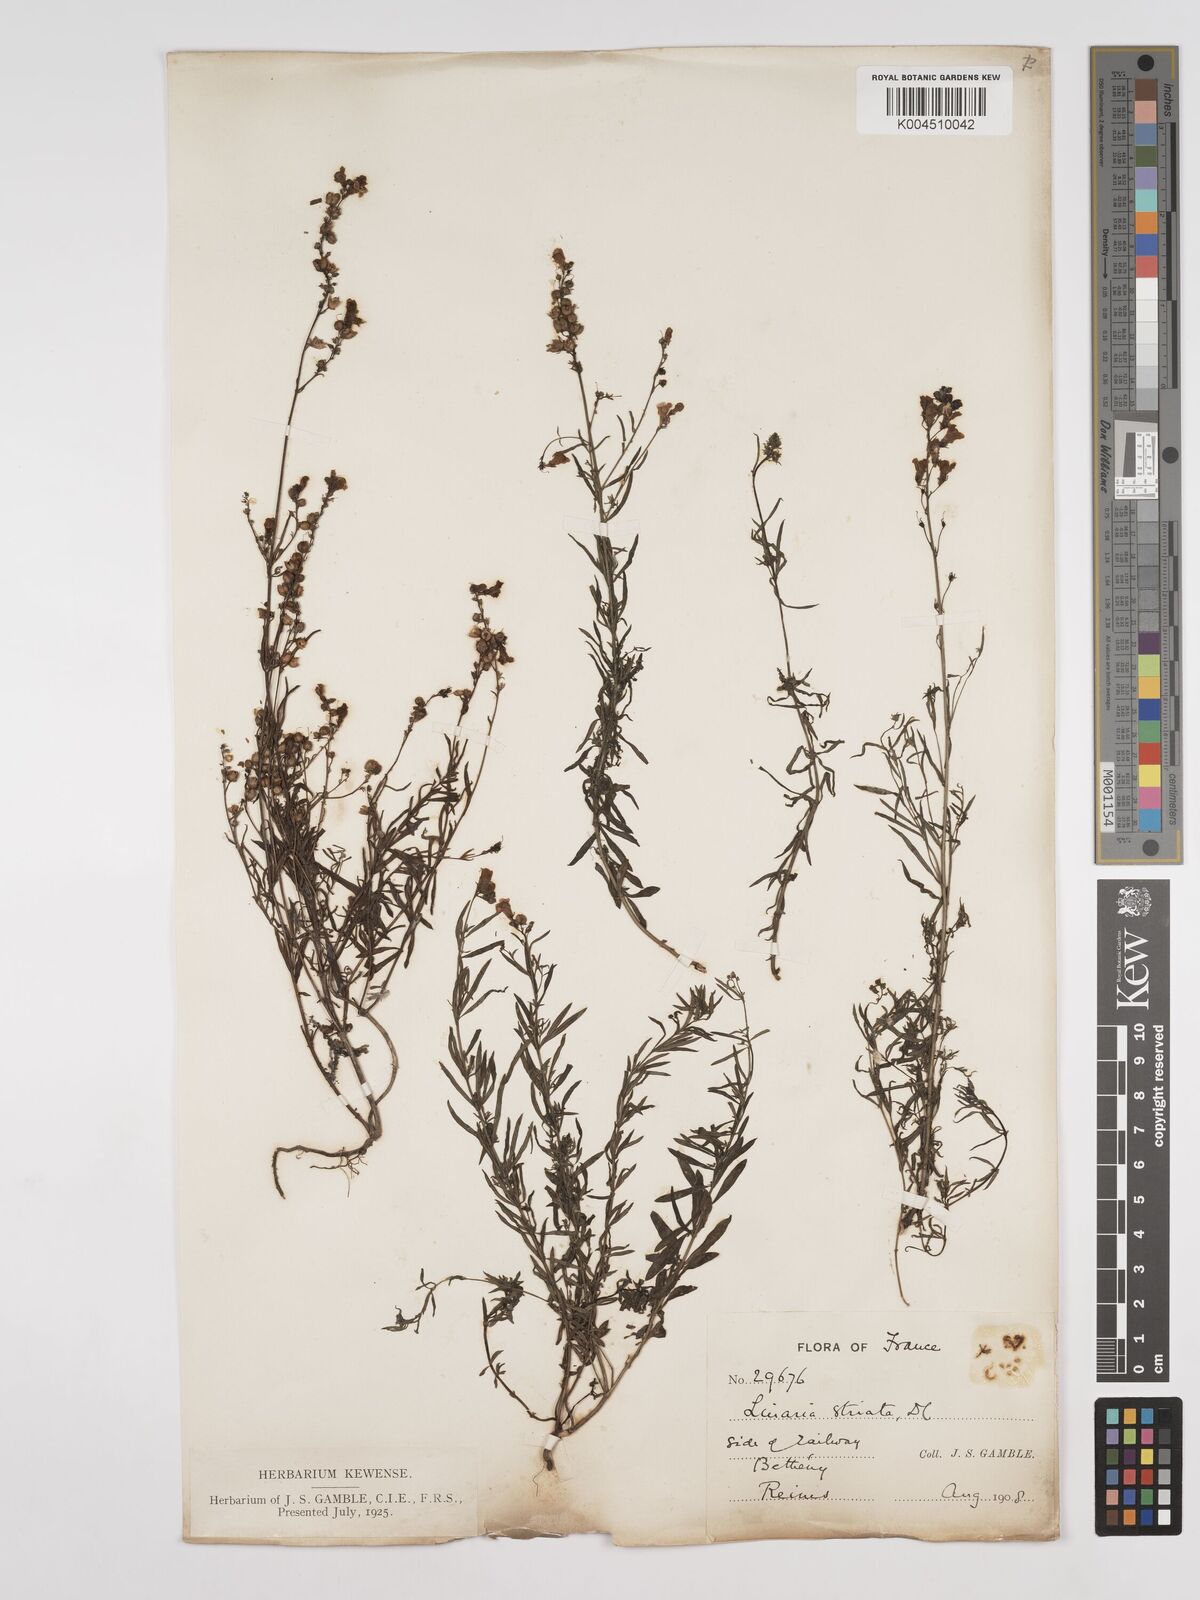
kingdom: Plantae
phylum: Tracheophyta
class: Magnoliopsida
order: Lamiales
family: Plantaginaceae
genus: Linaria
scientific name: Linaria repens
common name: Pale toadflax
